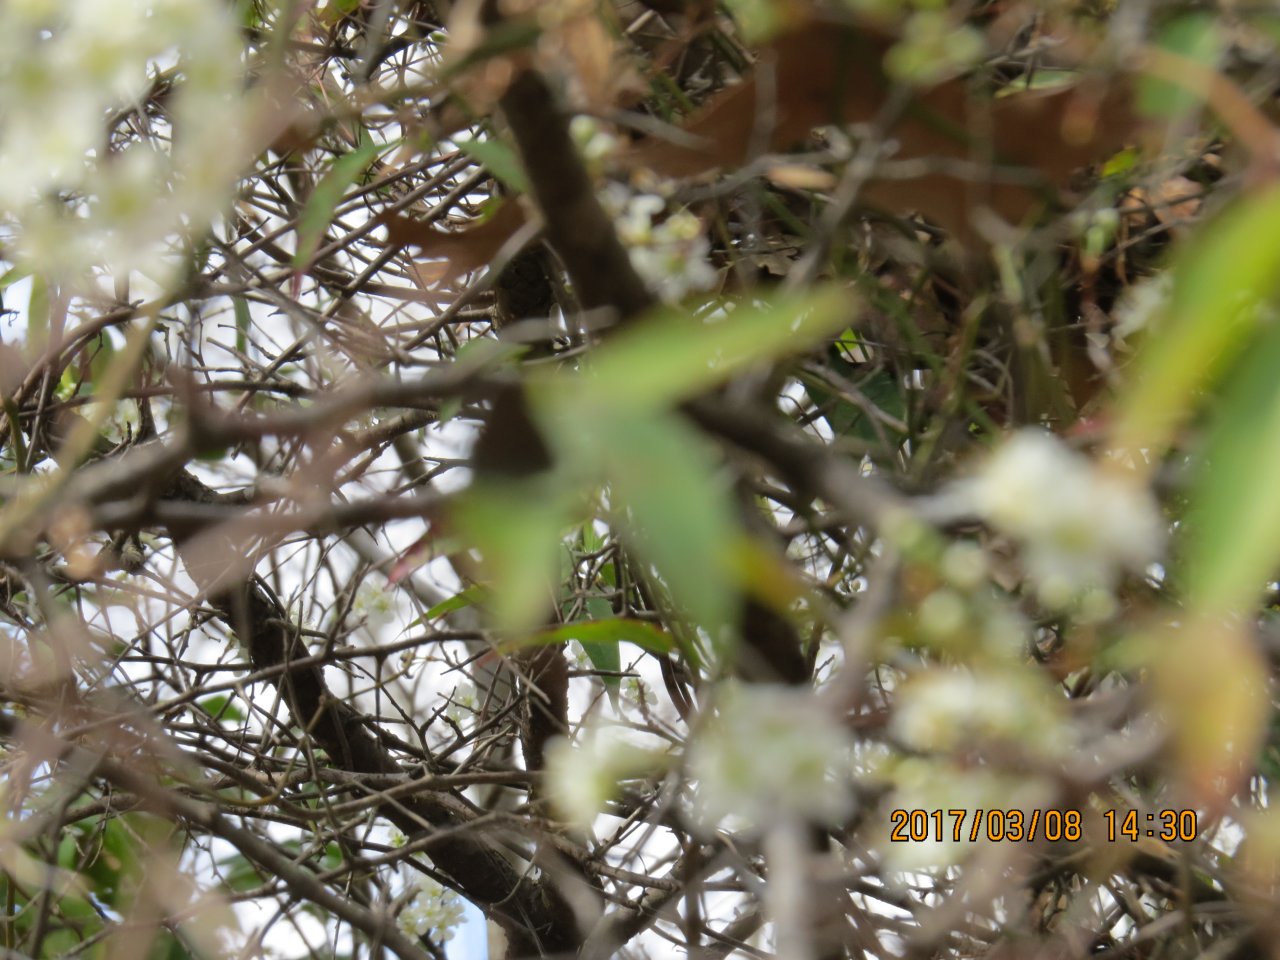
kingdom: Animalia
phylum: Arthropoda
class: Insecta
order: Lepidoptera
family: Lycaenidae
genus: Calycopis
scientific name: Calycopis cecrops
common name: Red-banded Hairstreak
